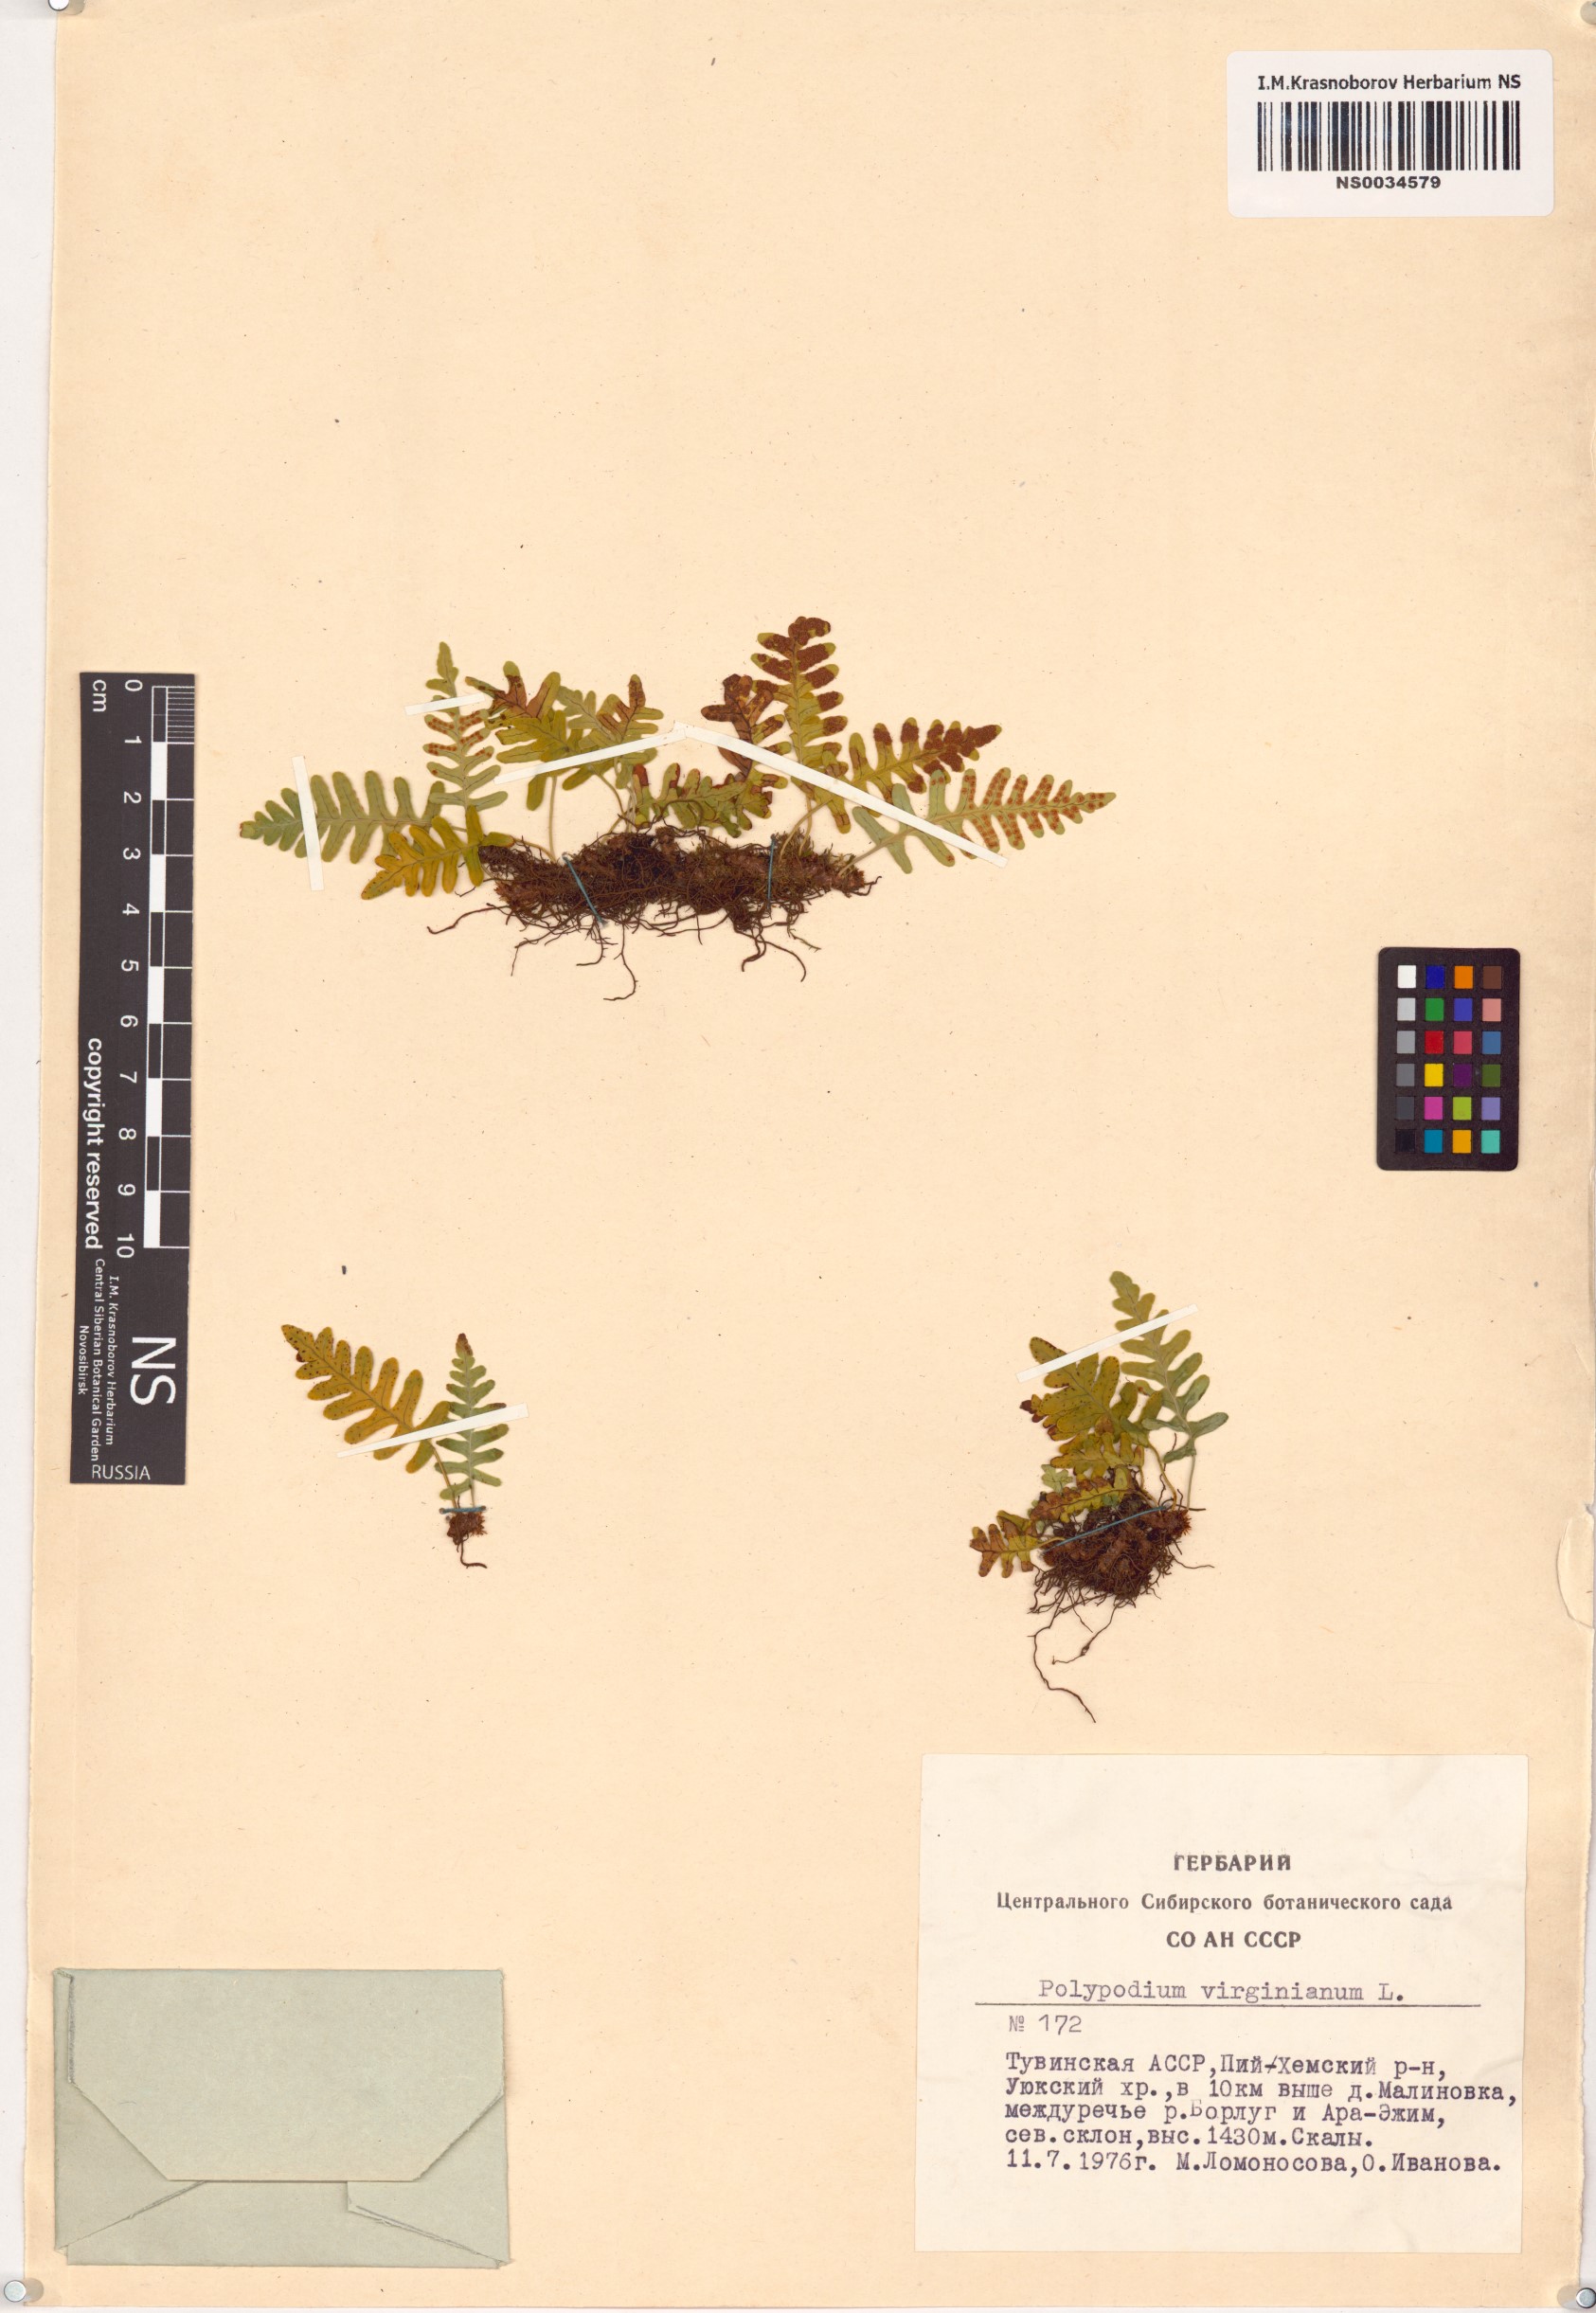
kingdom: Plantae
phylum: Tracheophyta
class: Polypodiopsida
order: Polypodiales
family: Polypodiaceae
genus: Polypodium
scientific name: Polypodium virginianum
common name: American wall fern
